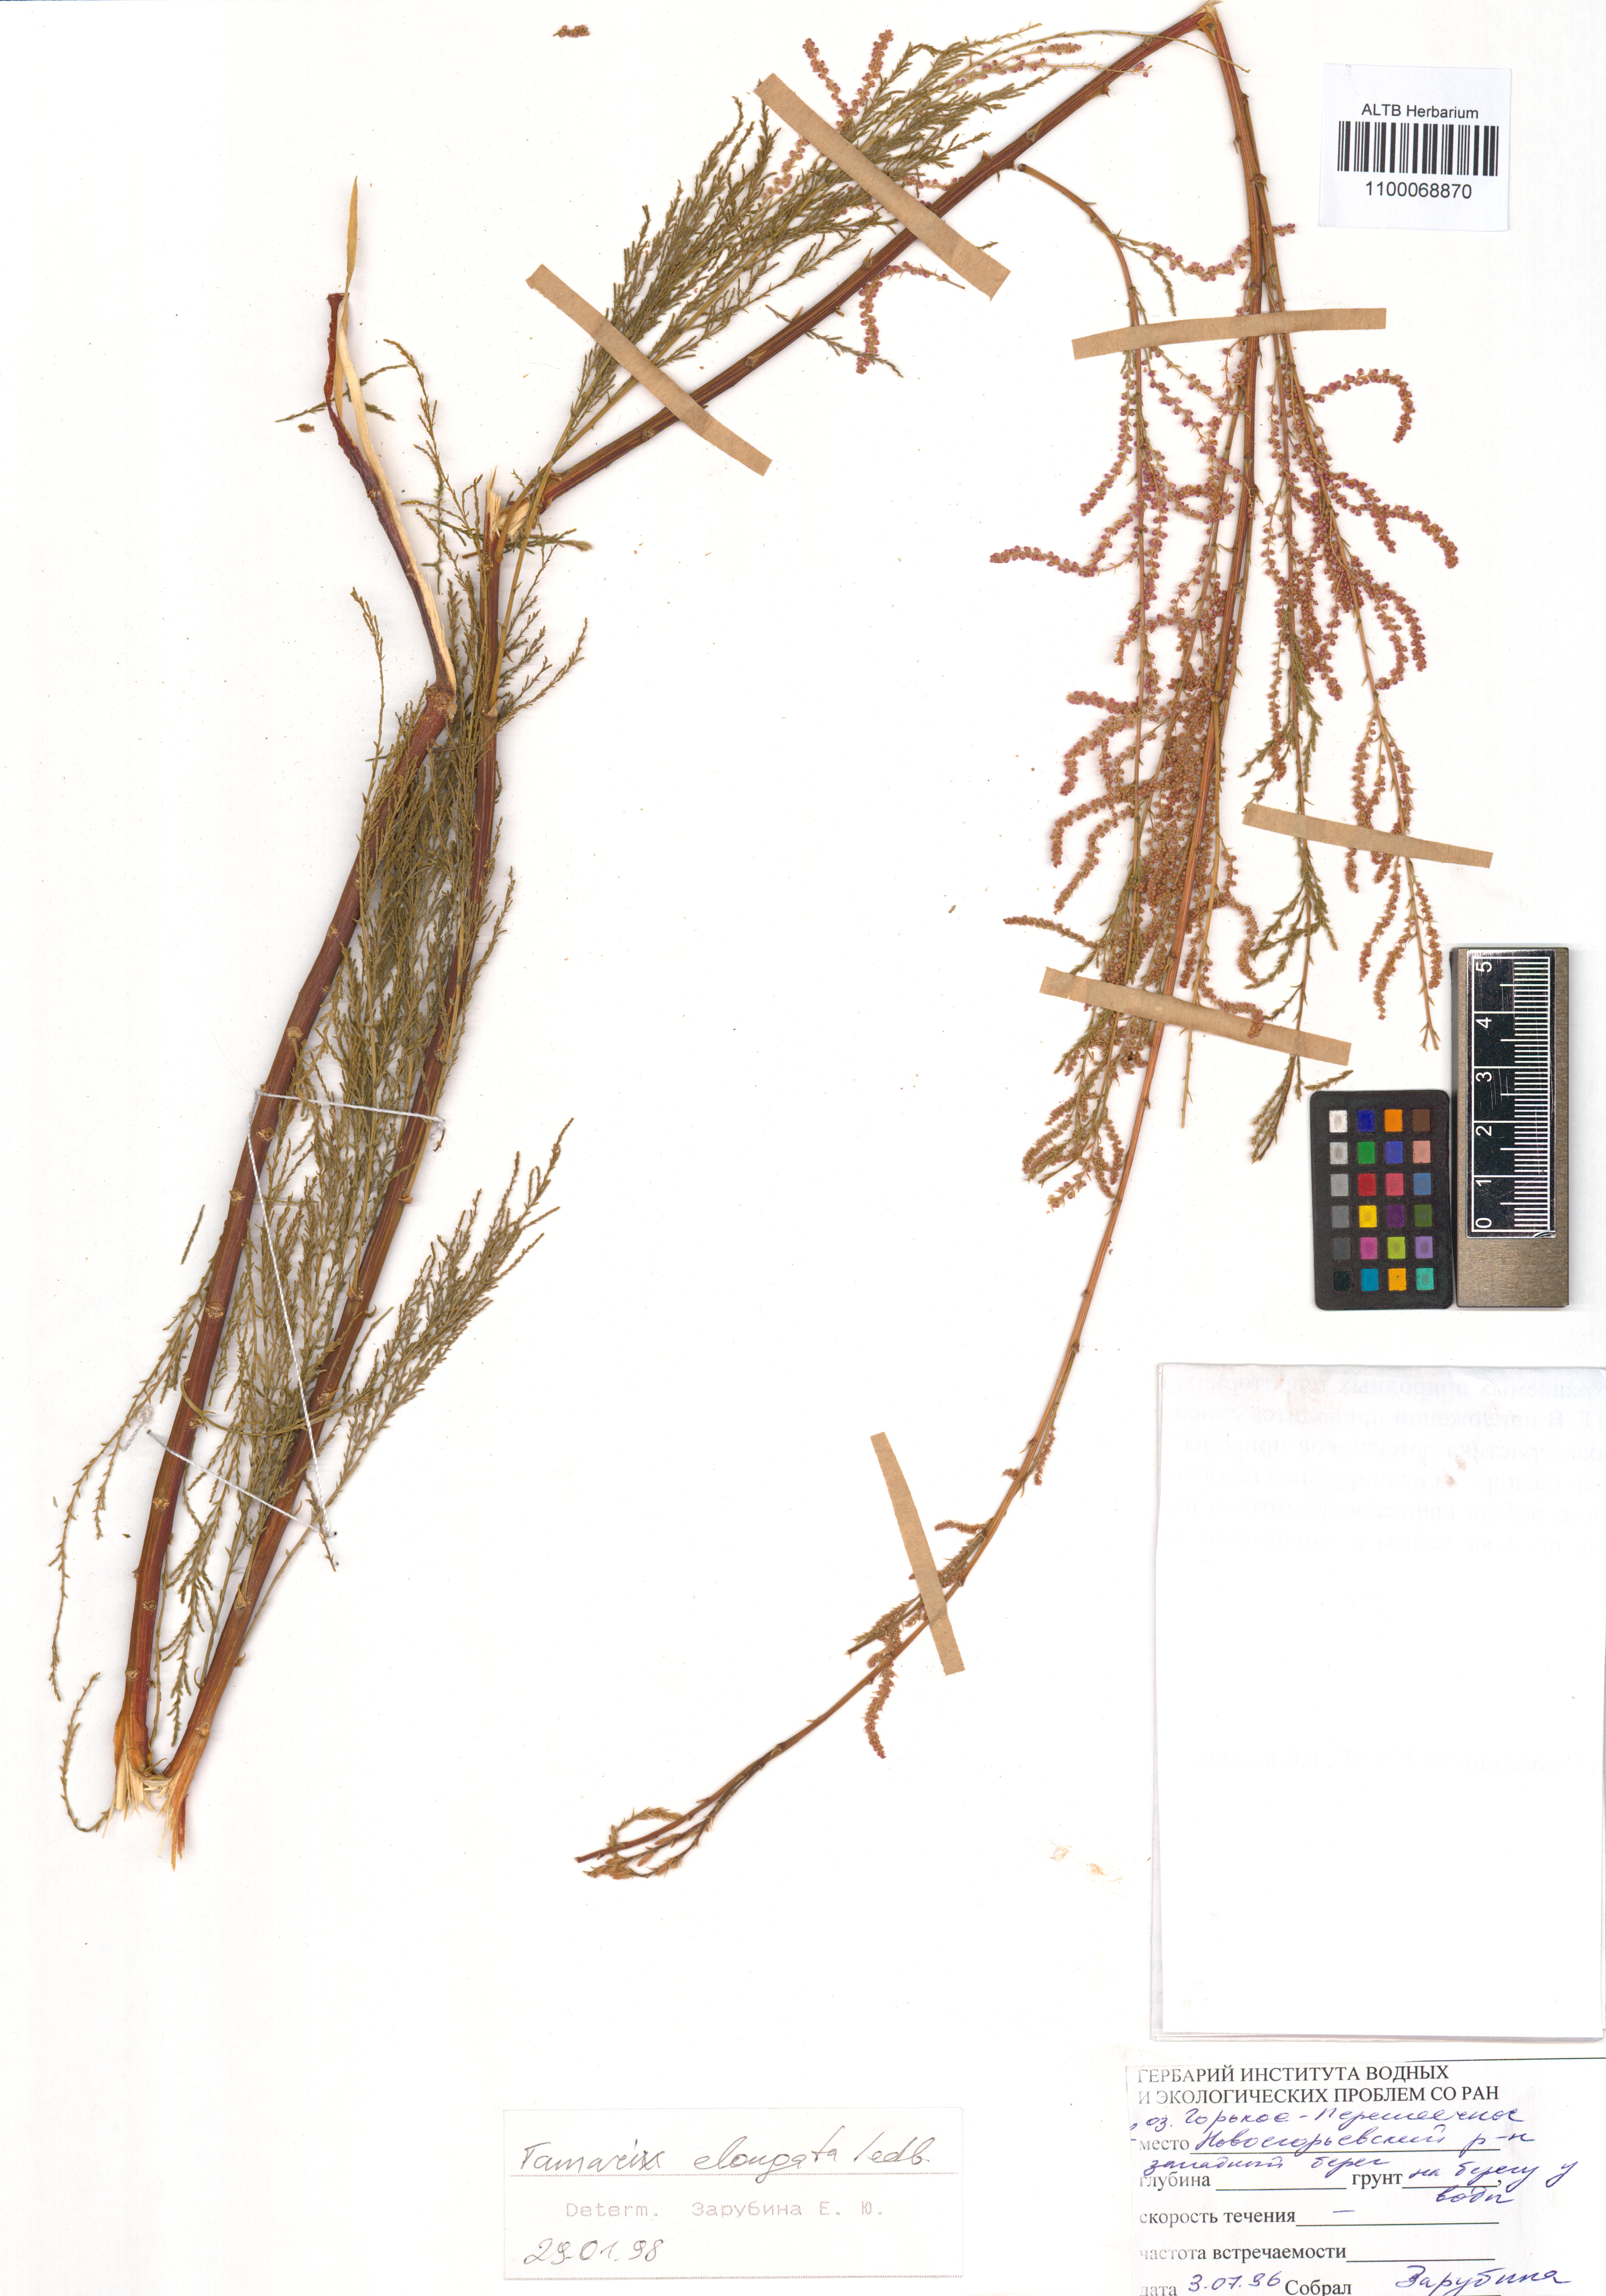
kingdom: Plantae
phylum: Tracheophyta
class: Magnoliopsida
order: Caryophyllales
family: Tamaricaceae
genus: Tamarix
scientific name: Tamarix elongata
